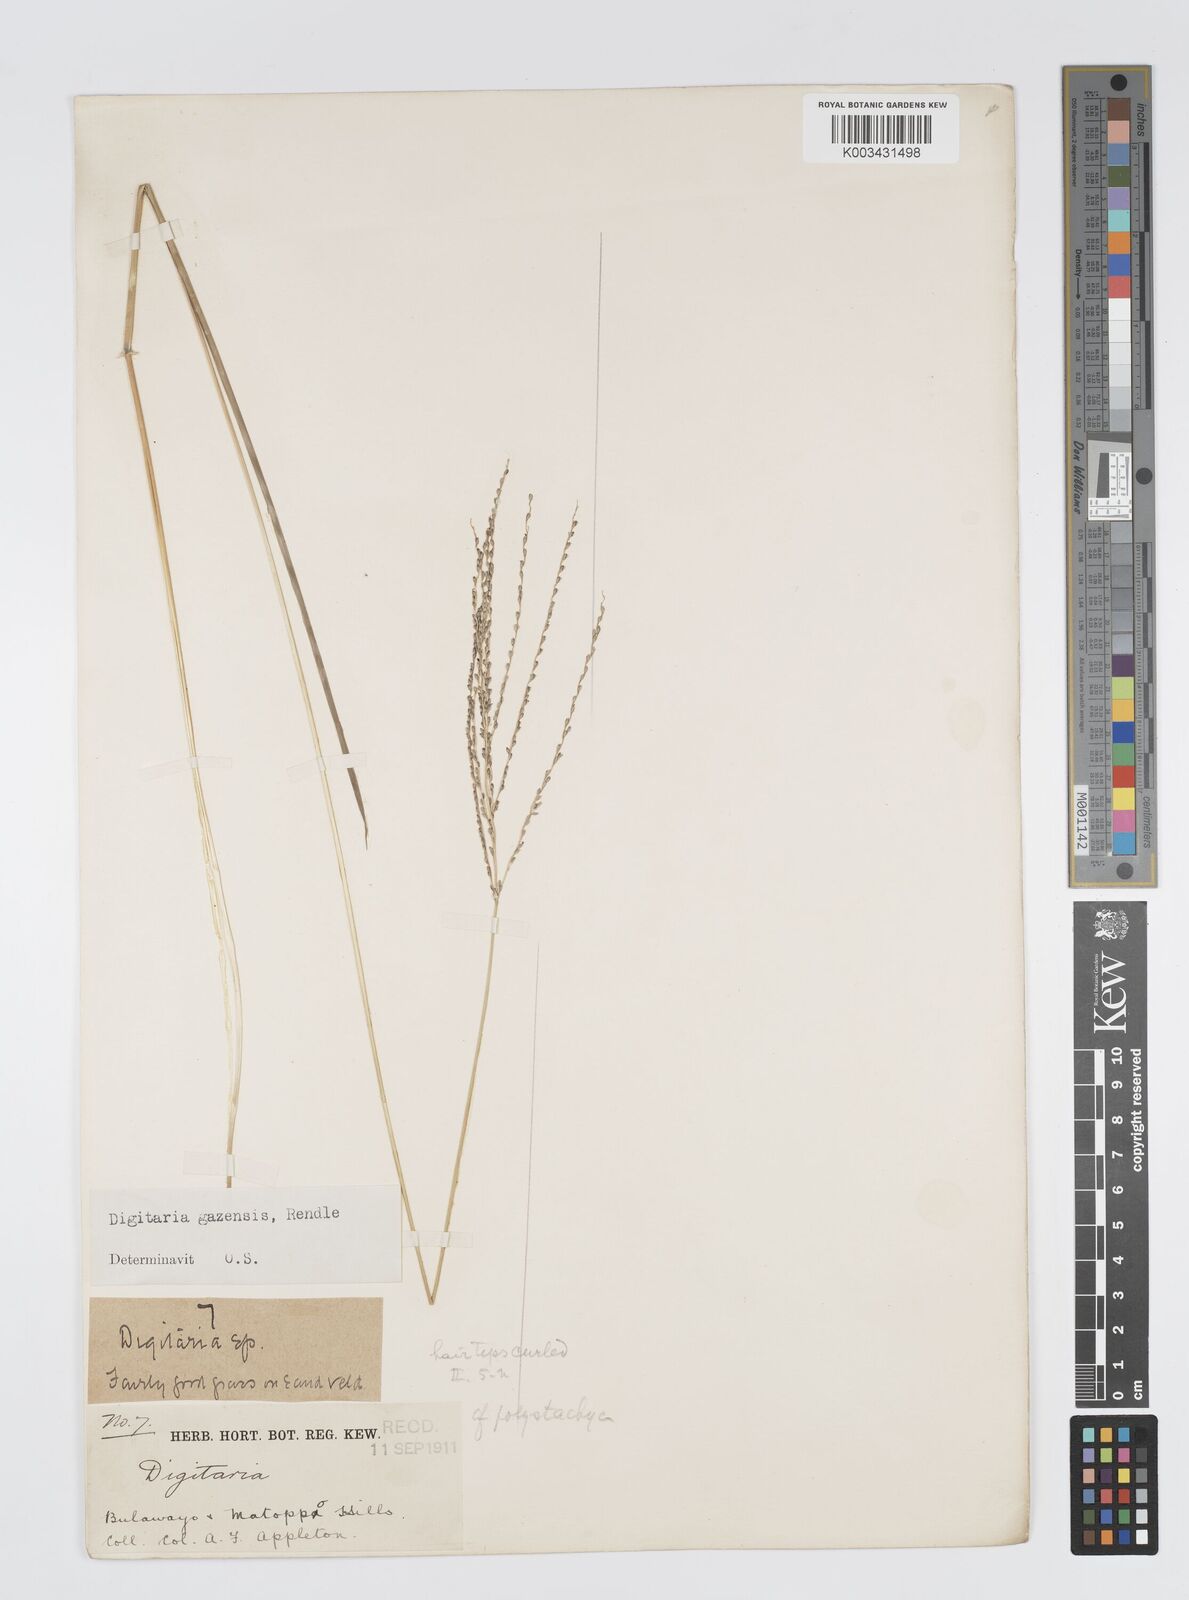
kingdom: Plantae
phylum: Tracheophyta
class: Liliopsida
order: Poales
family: Poaceae
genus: Digitaria
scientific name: Digitaria gazensis
